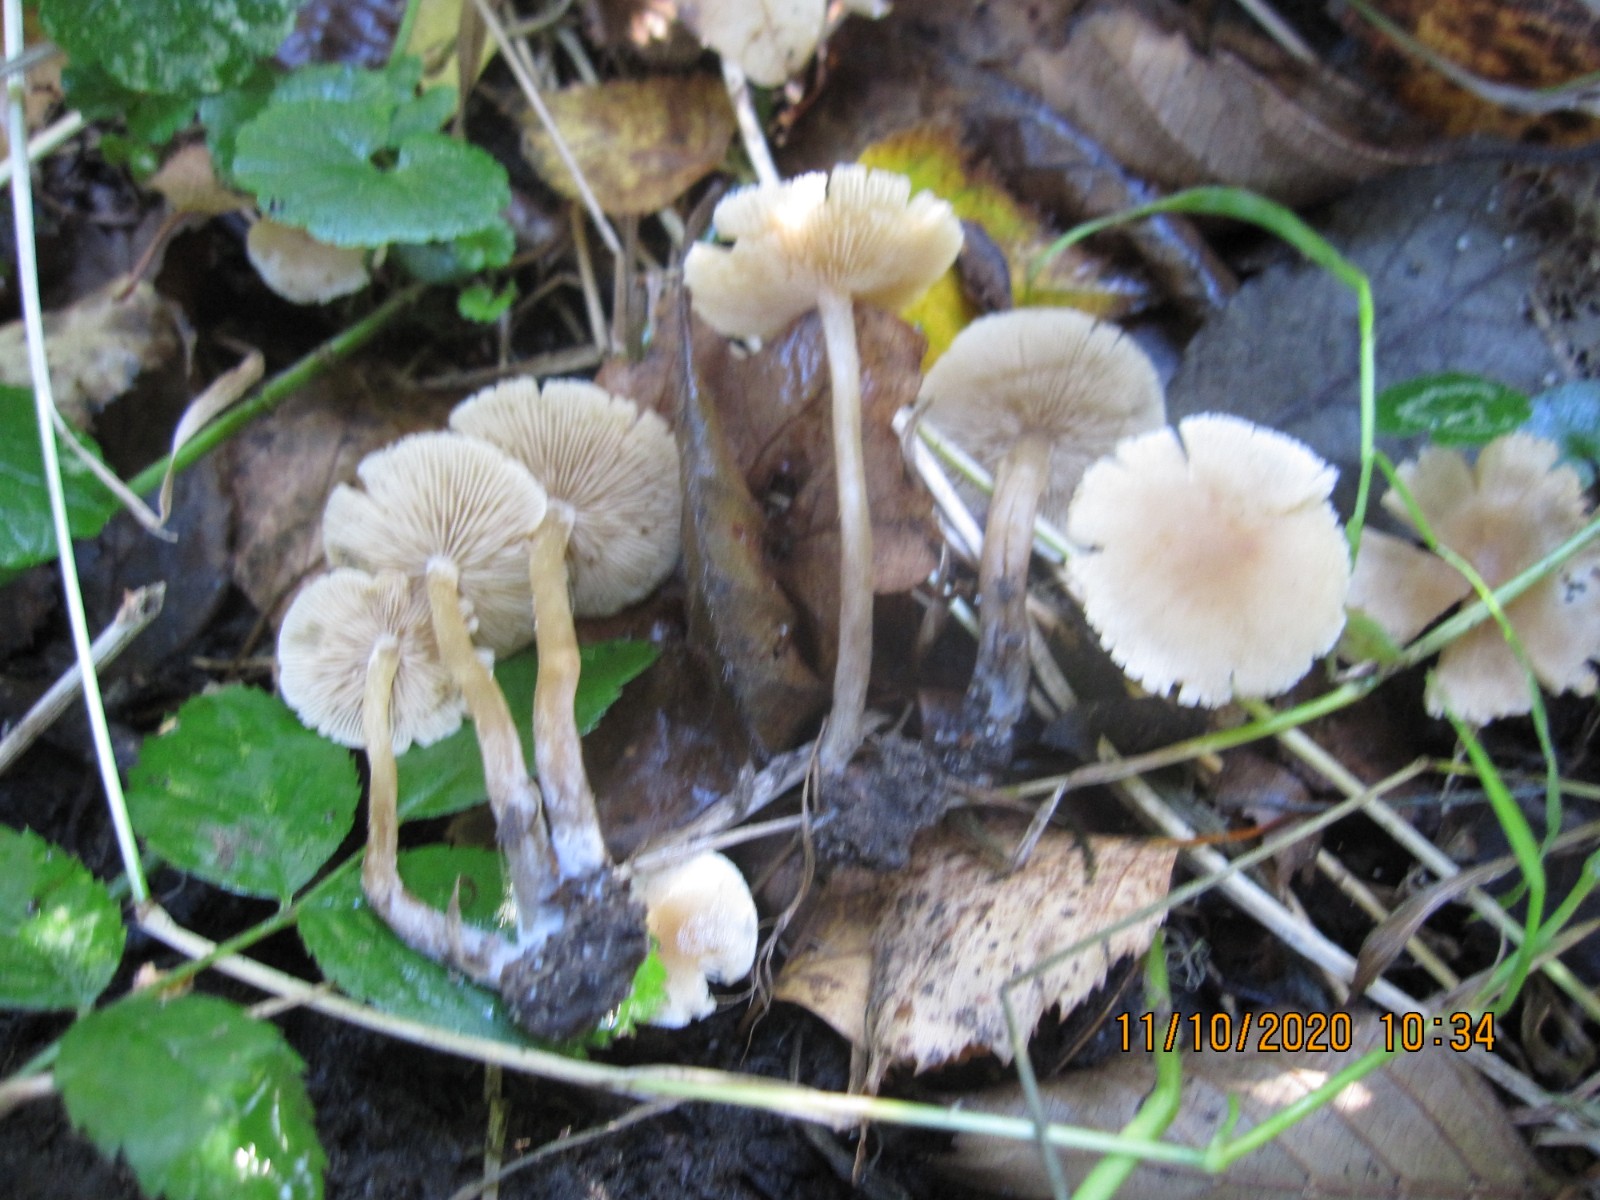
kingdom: Fungi
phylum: Basidiomycota
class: Agaricomycetes
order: Agaricales
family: Hymenogastraceae
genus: Naucoria
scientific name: Naucoria escharioides
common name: lys elle-knaphat
